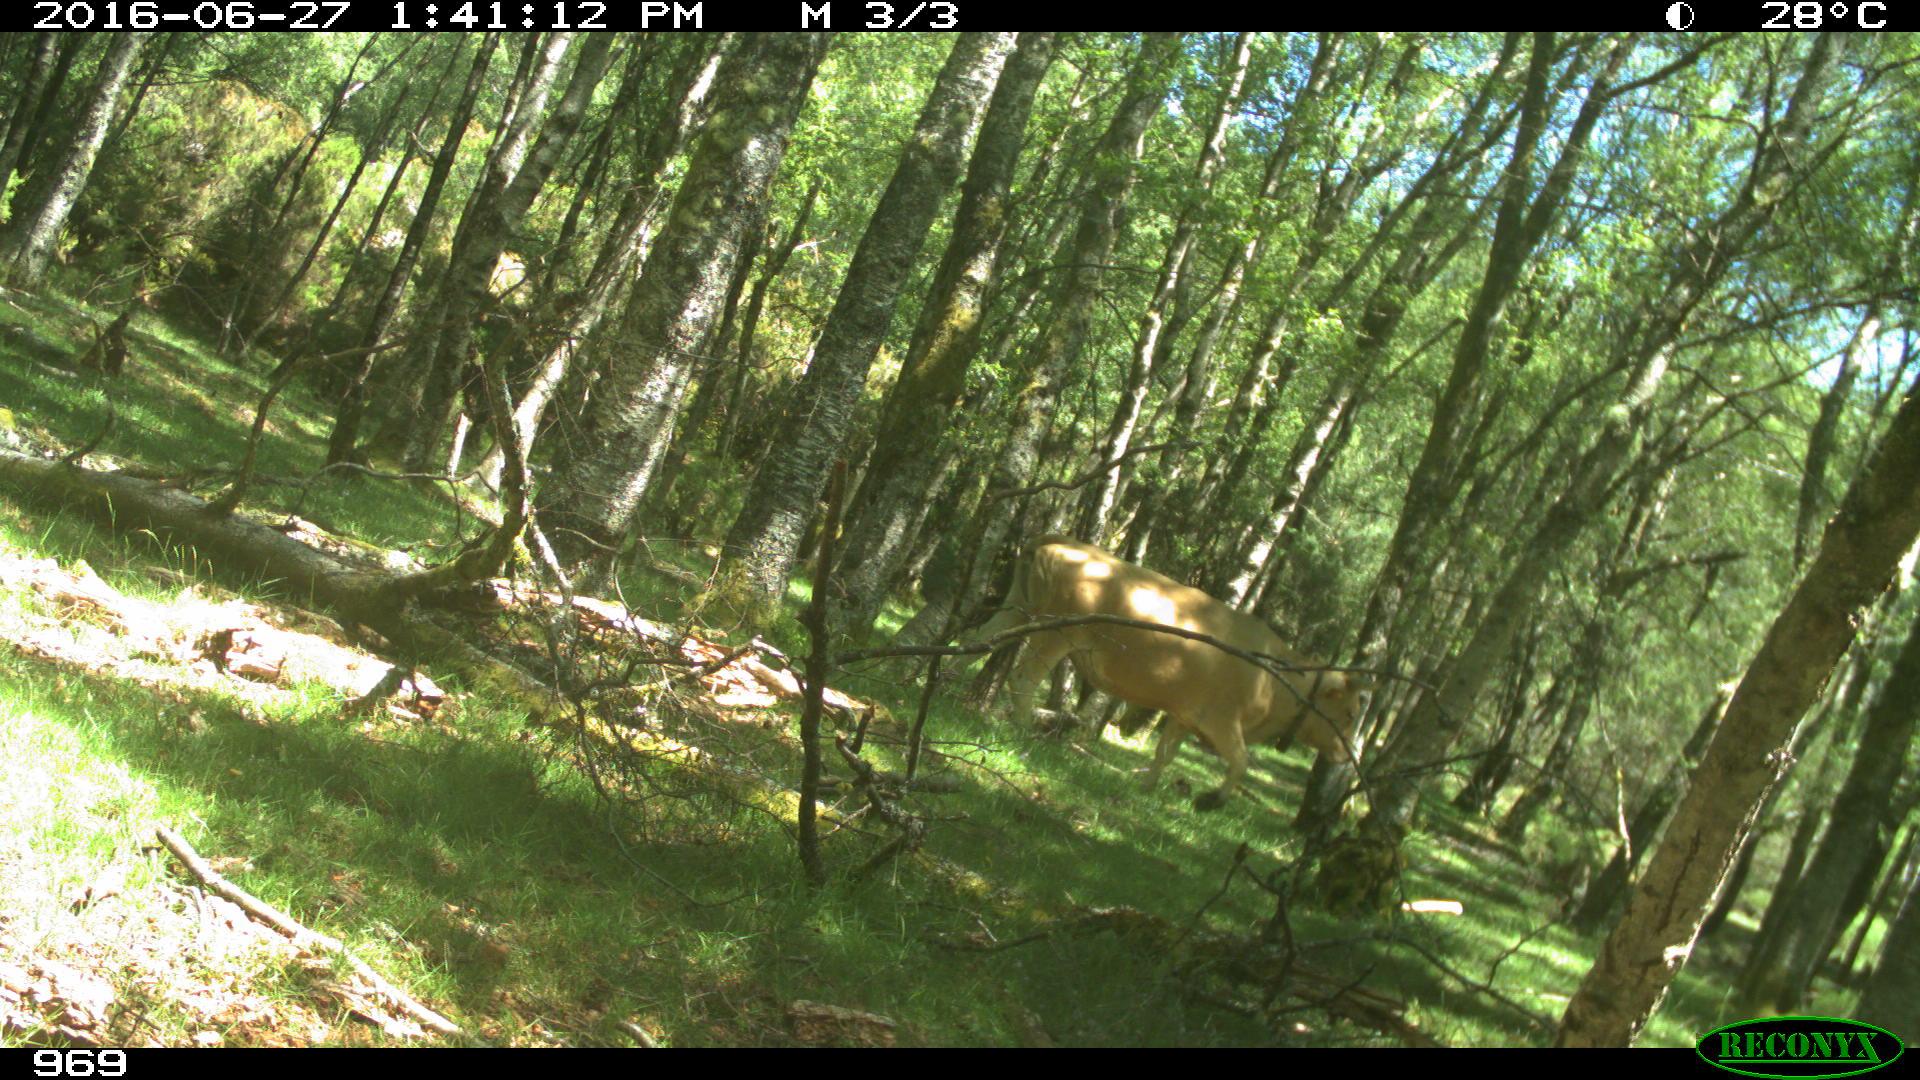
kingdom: Animalia
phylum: Chordata
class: Mammalia
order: Artiodactyla
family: Bovidae
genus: Bos
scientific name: Bos taurus
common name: Domesticated cattle
